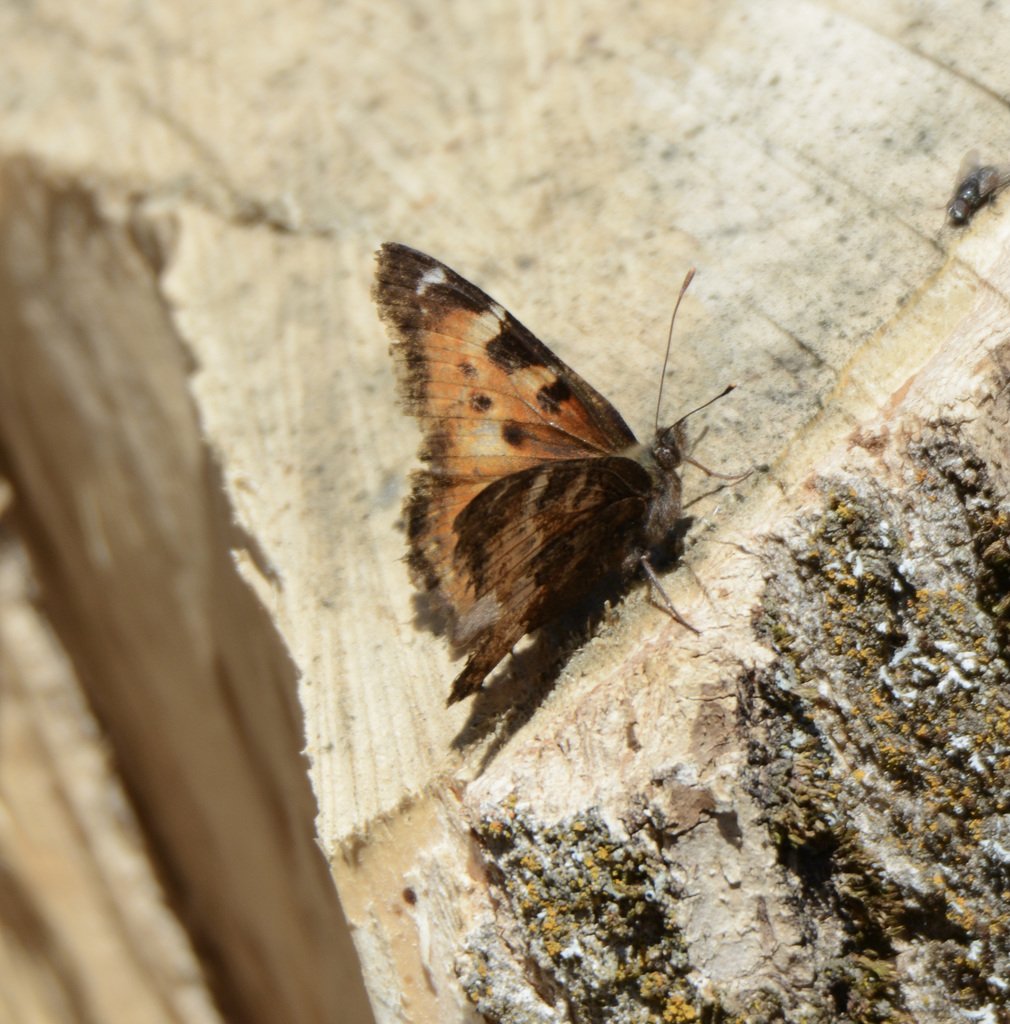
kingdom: Animalia
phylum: Arthropoda
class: Insecta
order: Lepidoptera
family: Nymphalidae
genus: Nymphalis
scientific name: Nymphalis californica
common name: California Tortoiseshell
